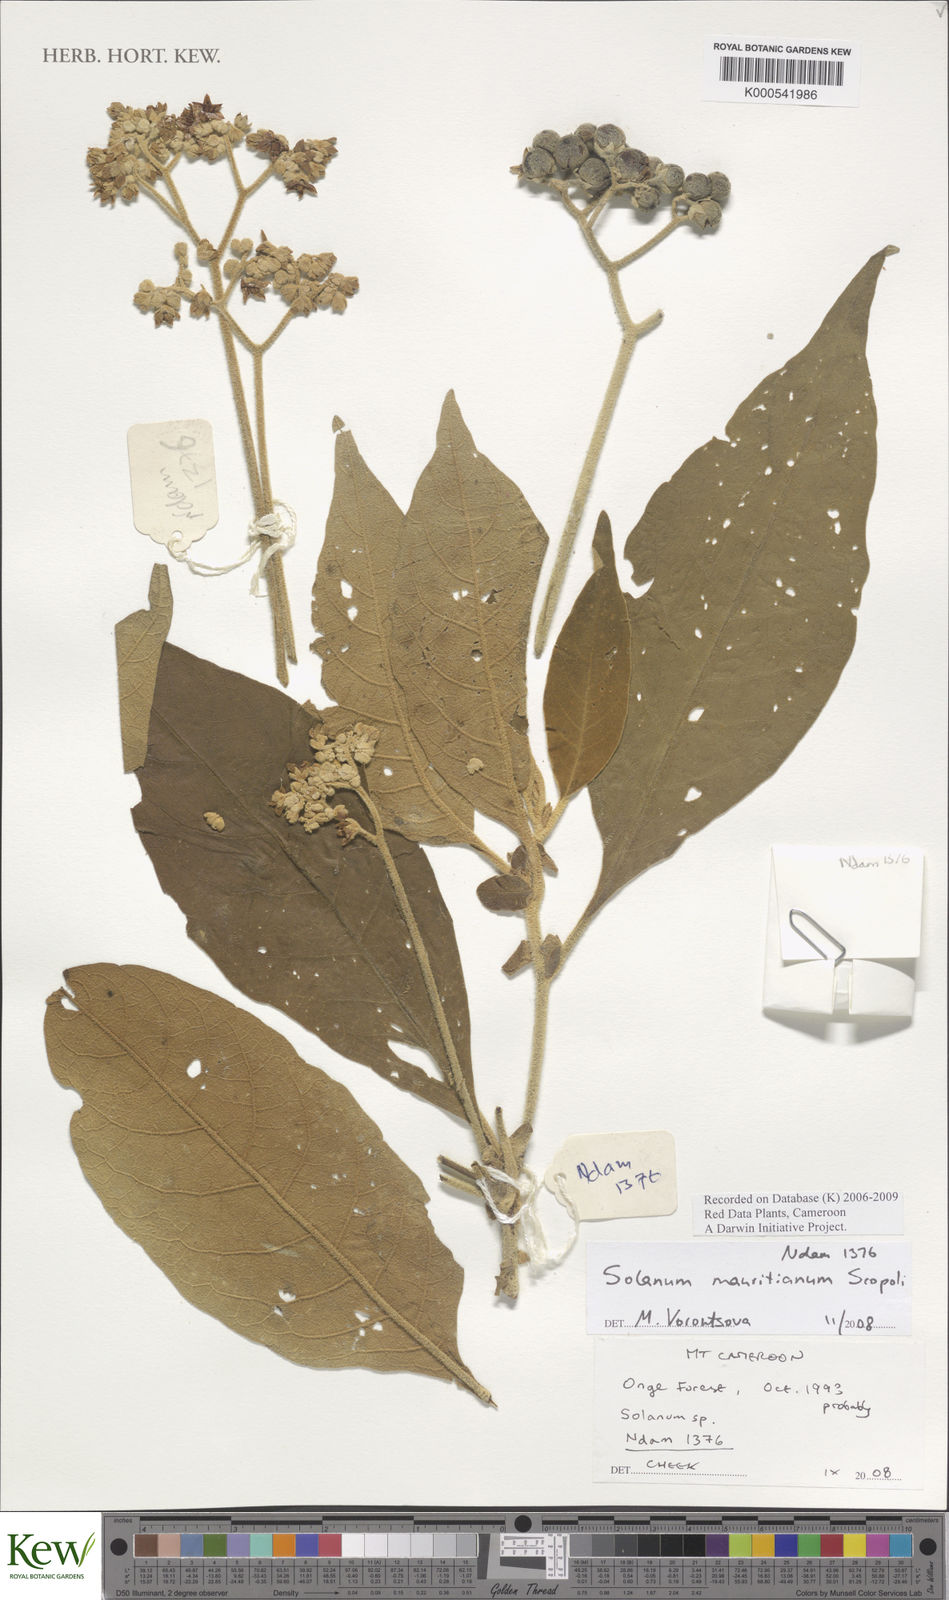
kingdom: Plantae
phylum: Tracheophyta
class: Magnoliopsida
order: Solanales
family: Solanaceae
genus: Solanum
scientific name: Solanum mauritianum
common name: Earleaf nightshade
